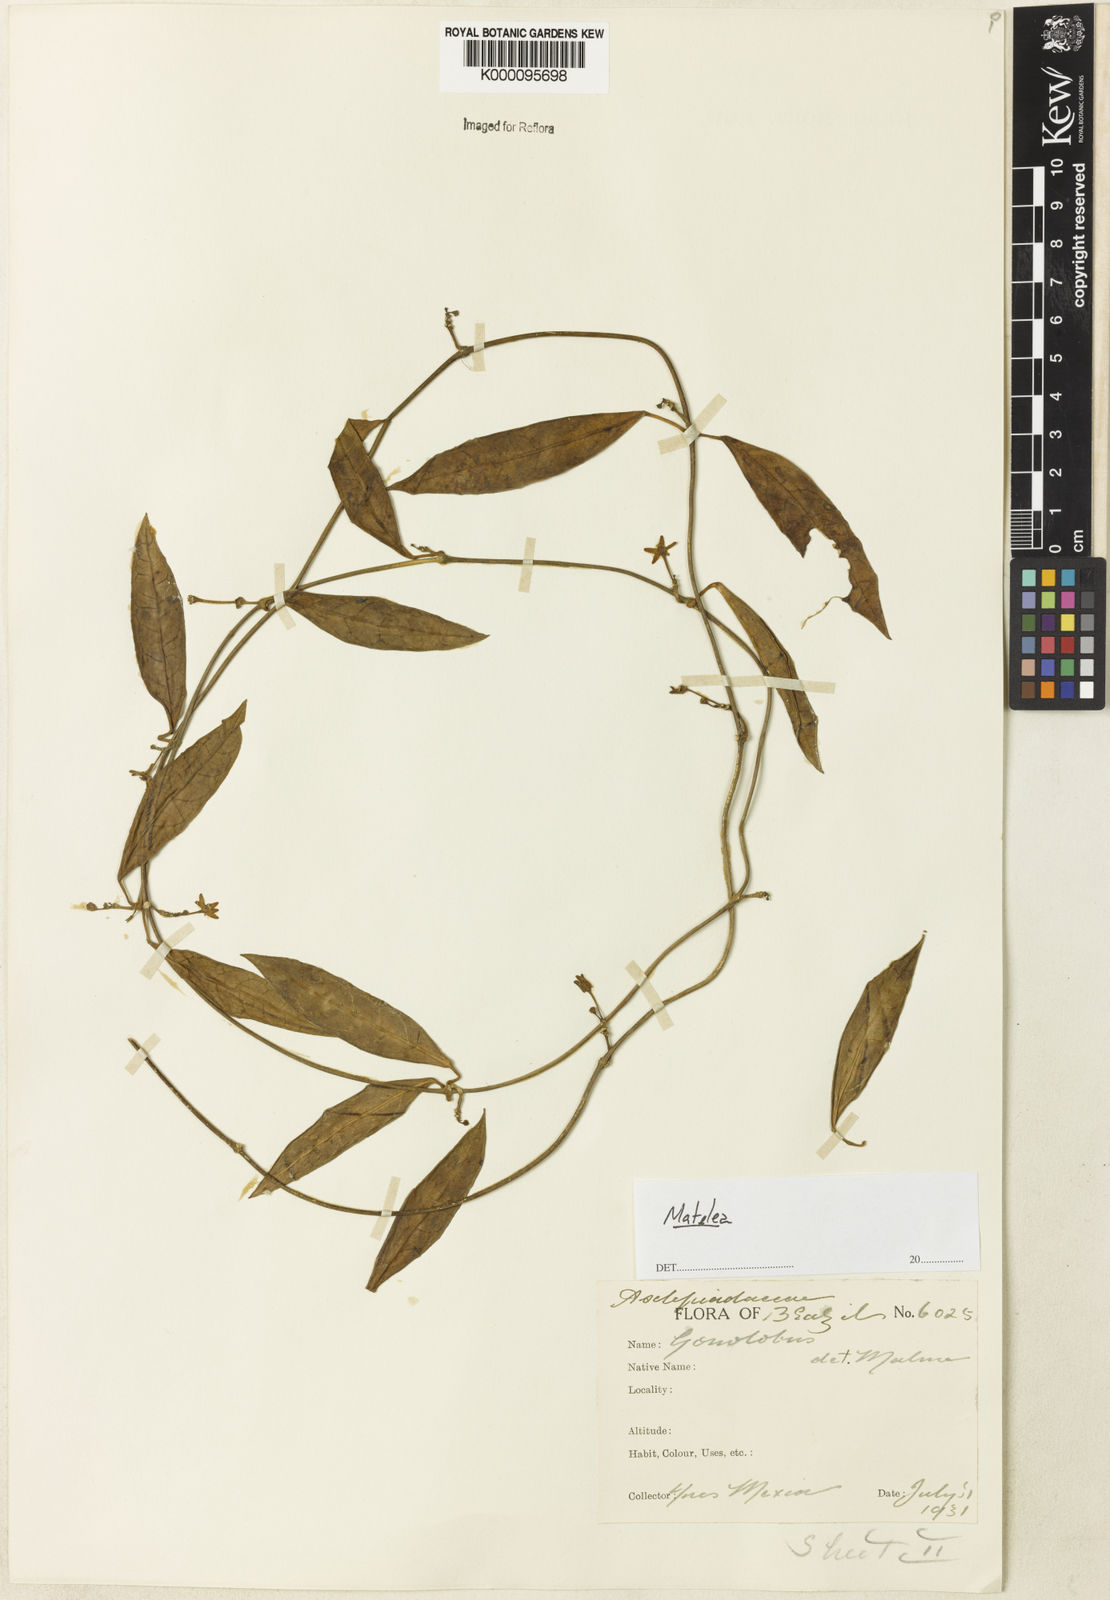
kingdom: Plantae
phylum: Tracheophyta
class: Magnoliopsida
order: Gentianales
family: Apocynaceae
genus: Matelea
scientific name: Matelea
